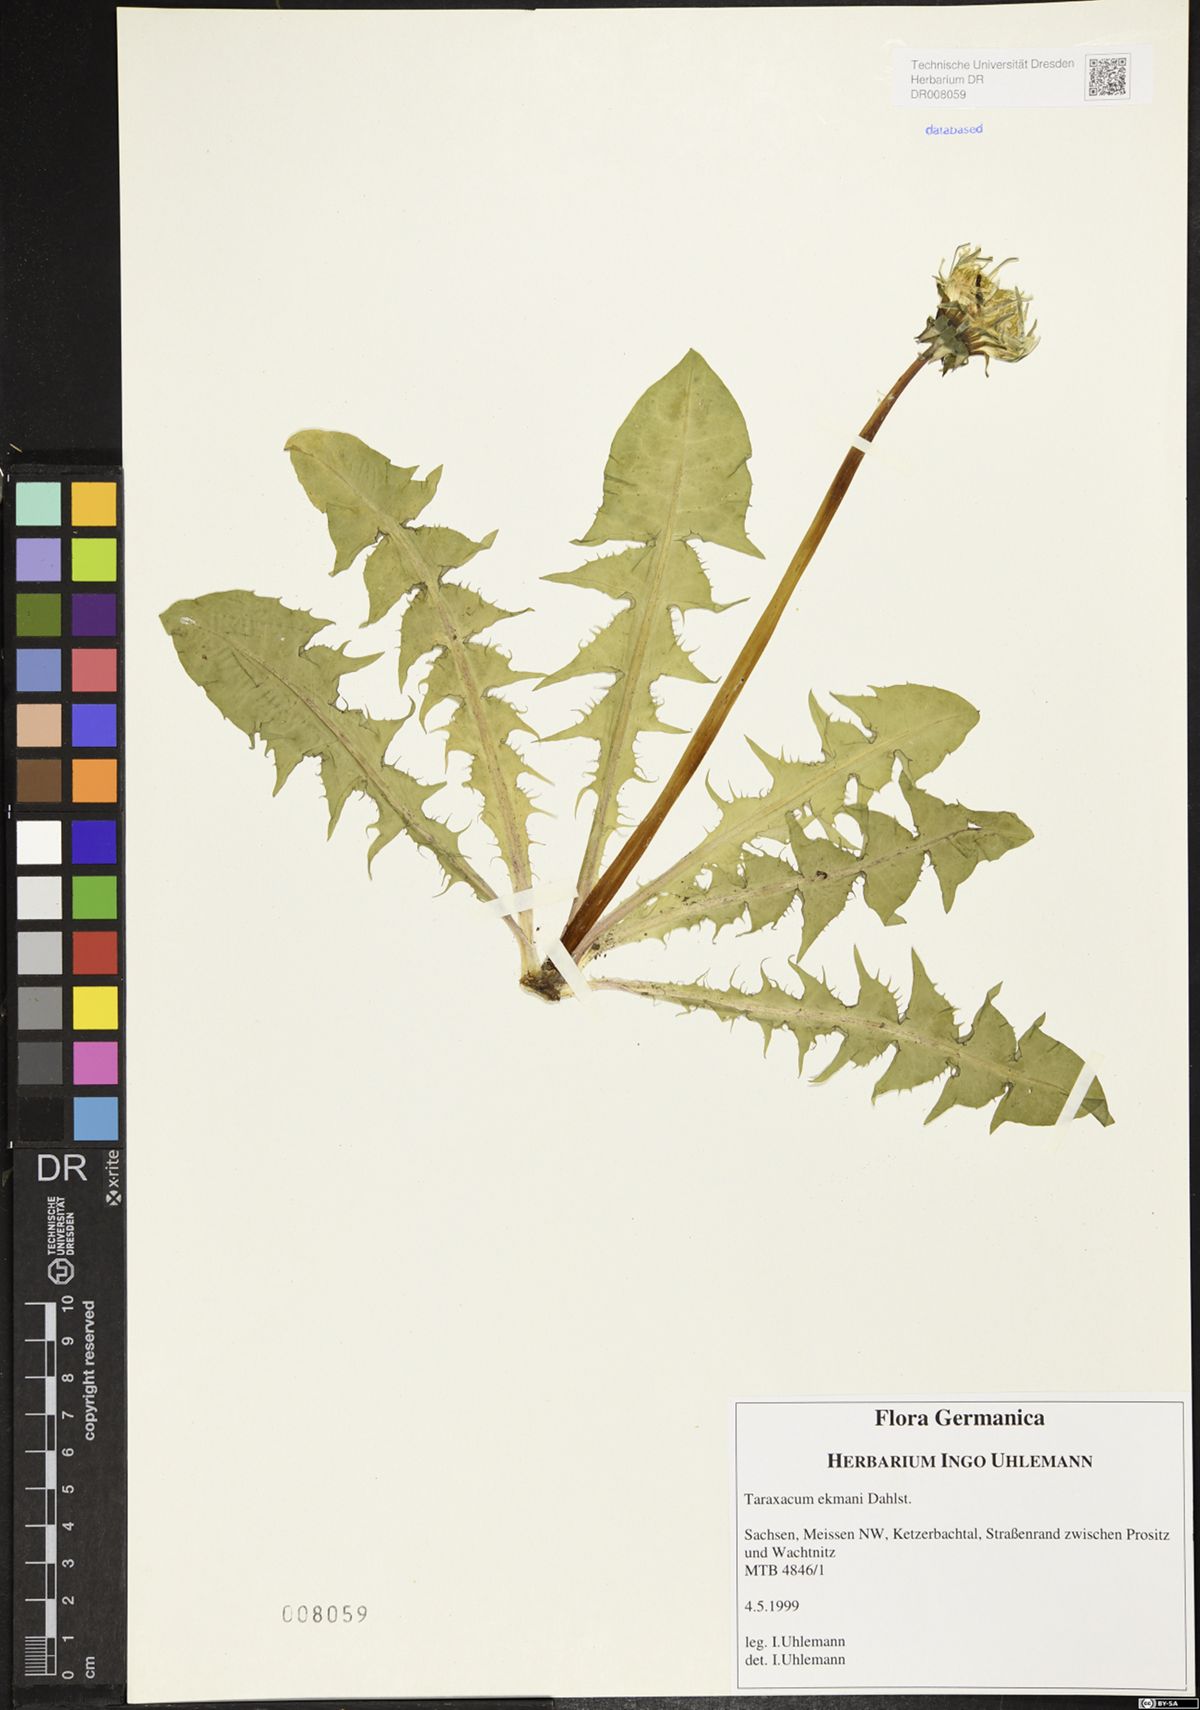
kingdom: Plantae
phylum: Tracheophyta
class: Magnoliopsida
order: Asterales
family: Asteraceae
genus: Taraxacum
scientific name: Taraxacum ekmanii
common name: Ekman's dandelion
